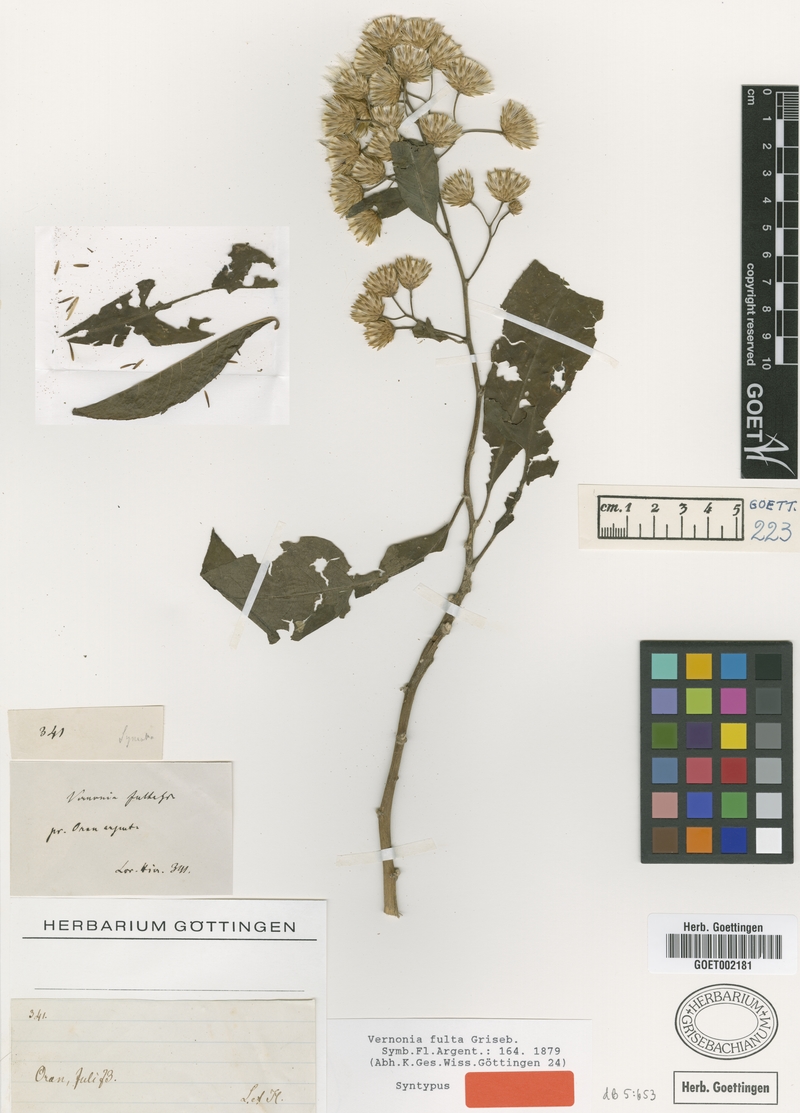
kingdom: Plantae
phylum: Tracheophyta
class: Magnoliopsida
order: Asterales
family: Asteraceae
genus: Quechualia
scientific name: Quechualia fulta
